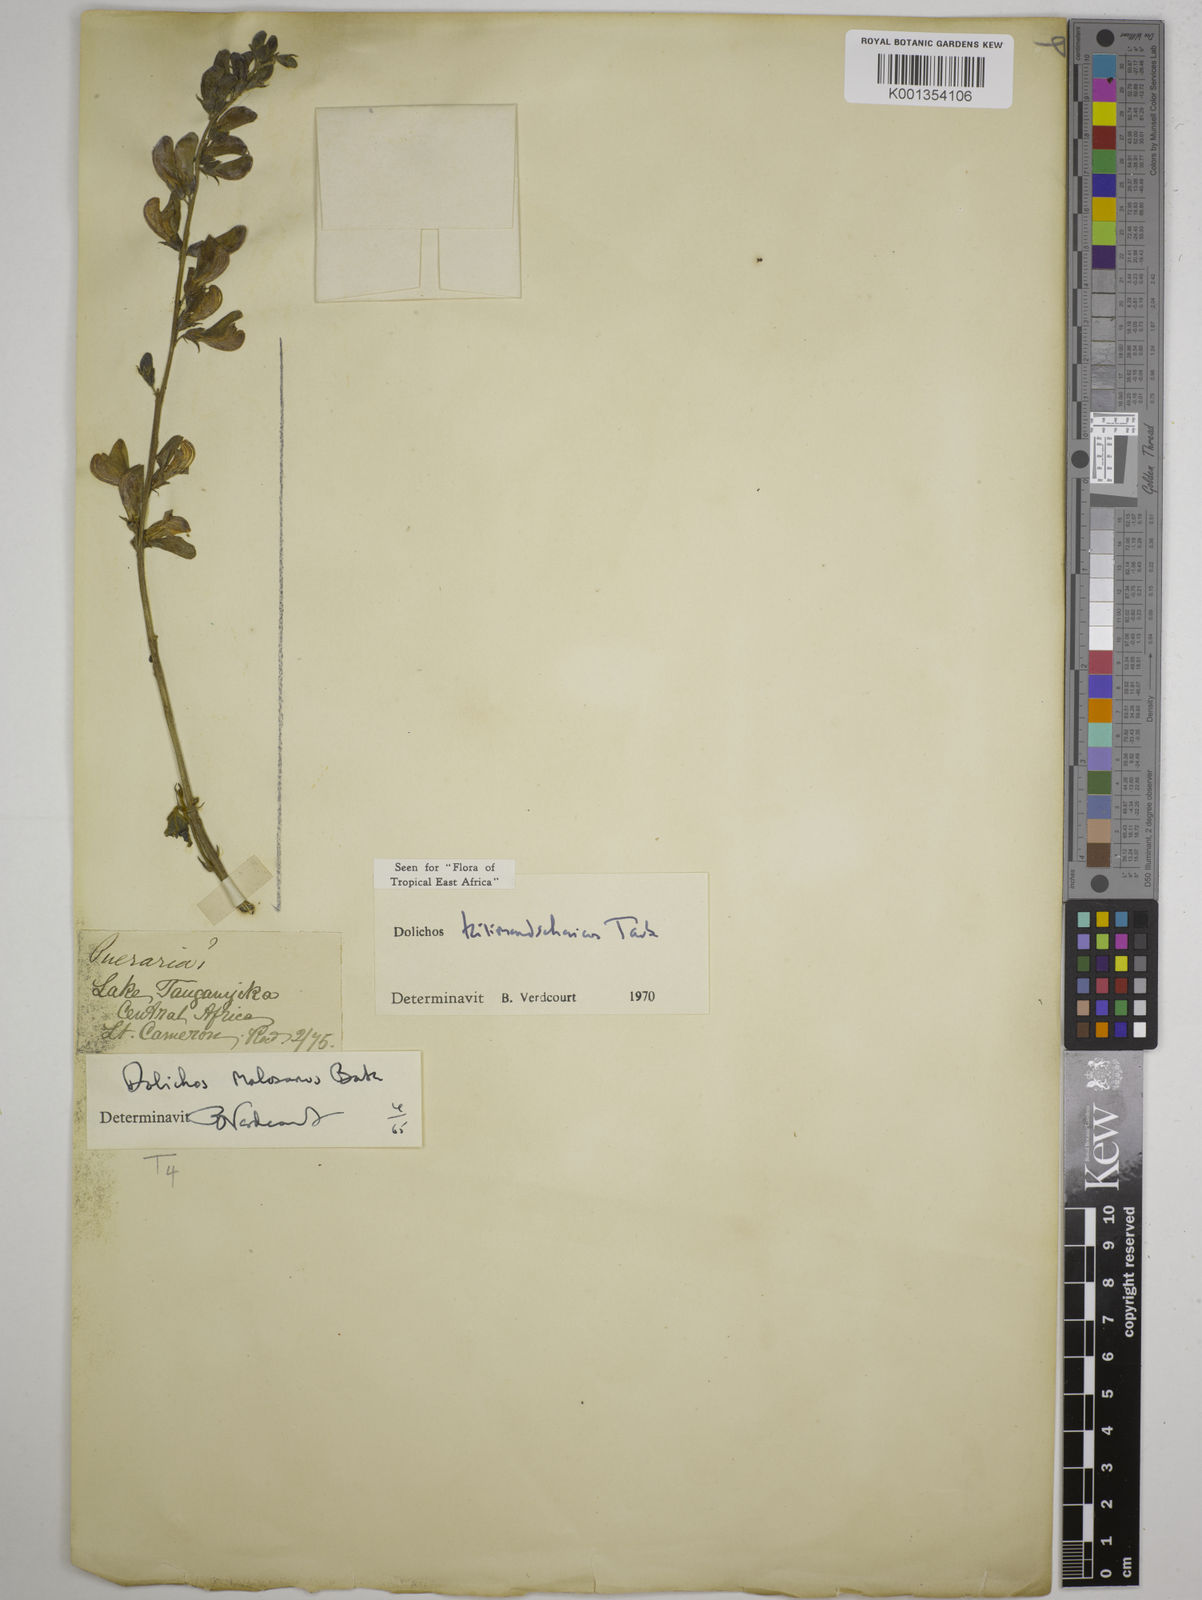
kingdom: Plantae
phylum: Tracheophyta
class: Magnoliopsida
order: Fabales
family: Fabaceae
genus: Dolichos
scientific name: Dolichos kilimandscharicus
